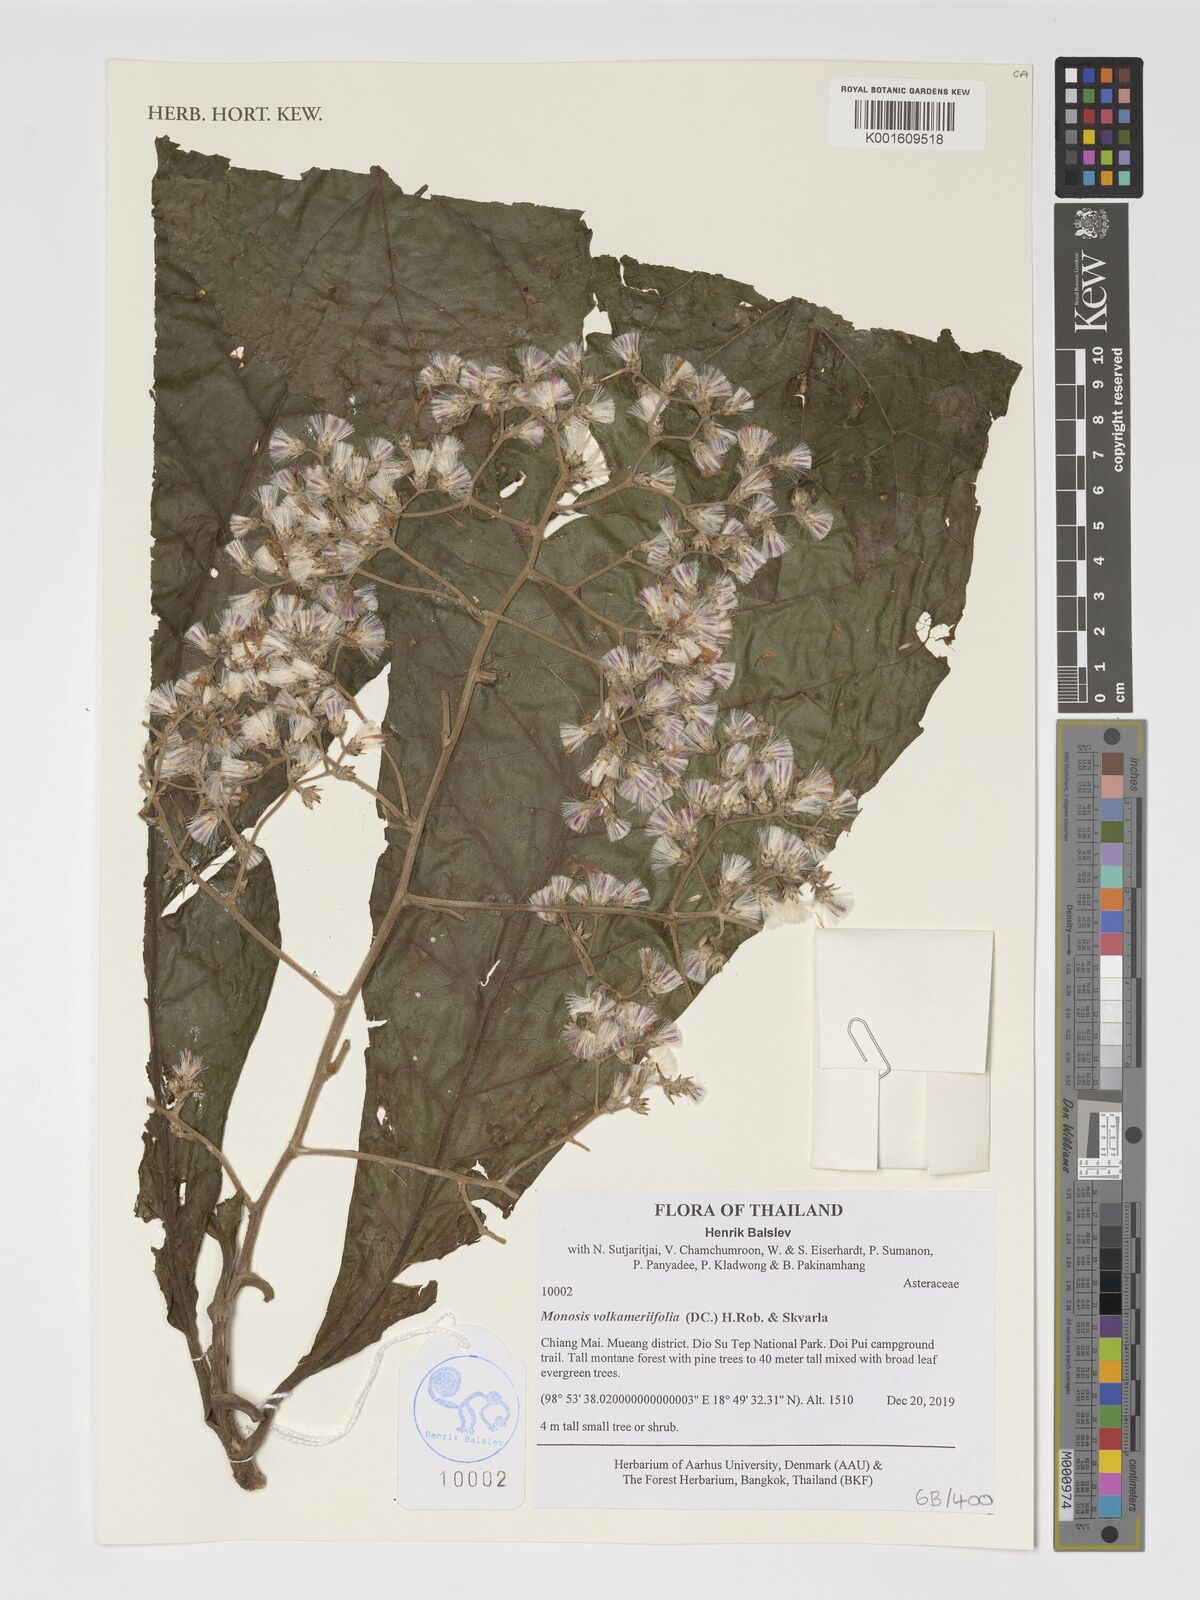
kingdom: Plantae
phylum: Tracheophyta
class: Magnoliopsida
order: Asterales
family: Asteraceae
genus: Monosis
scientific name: Monosis volkameriifolia
